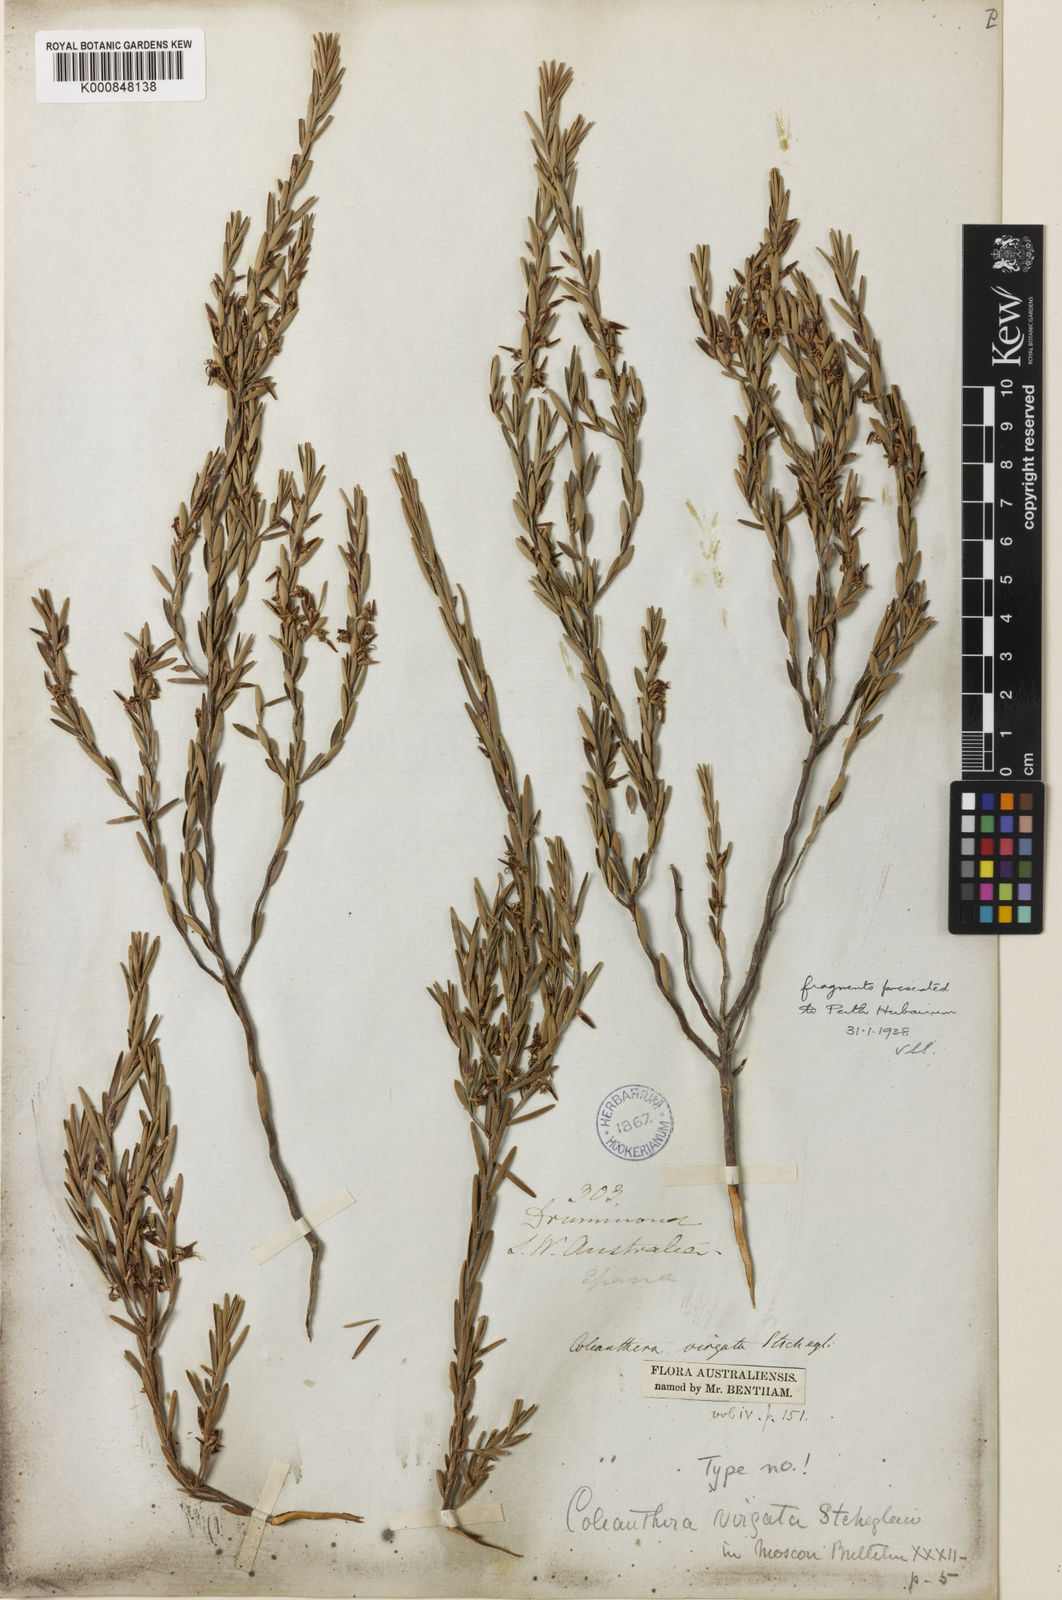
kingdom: Plantae
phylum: Tracheophyta
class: Magnoliopsida
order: Ericales
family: Ericaceae
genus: Styphelia
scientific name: Styphelia lanata
